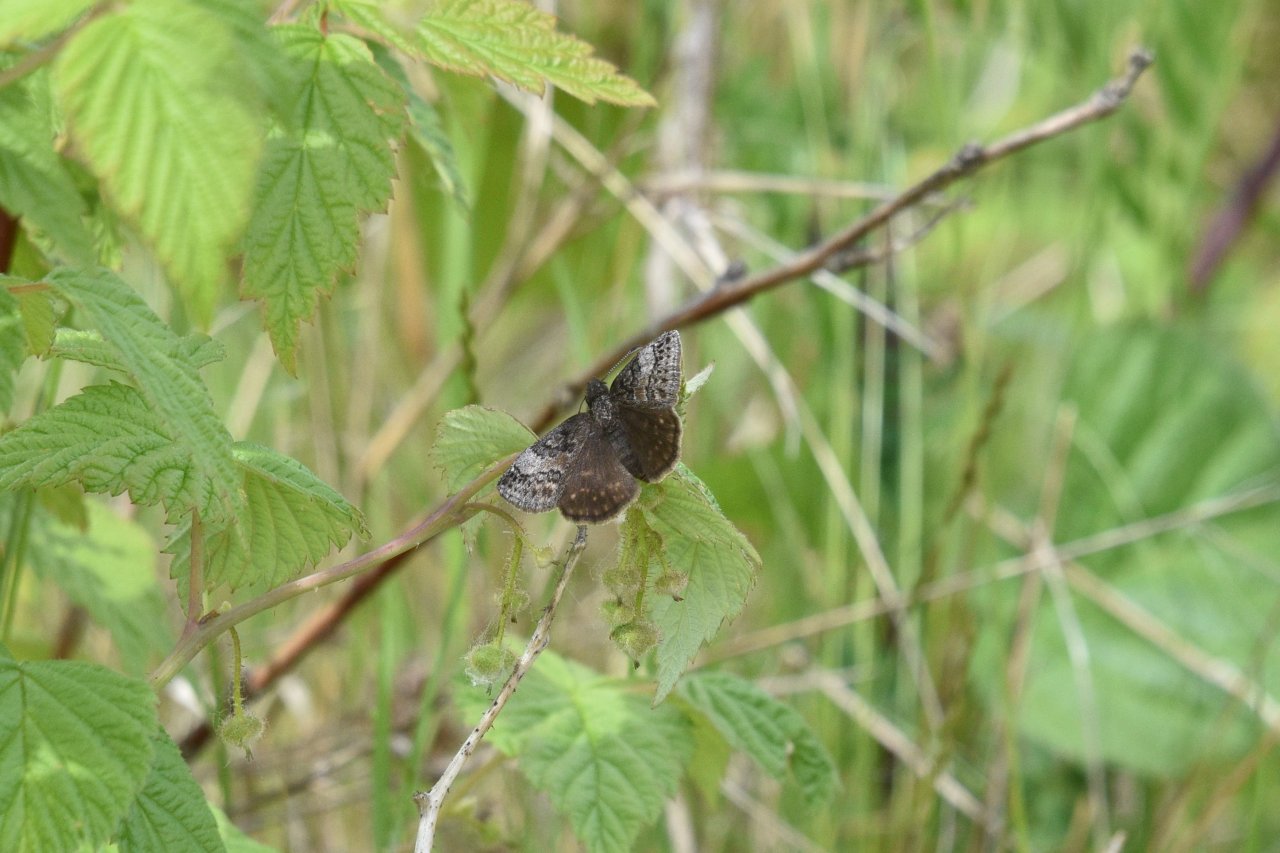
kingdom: Animalia
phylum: Arthropoda
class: Insecta
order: Lepidoptera
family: Hesperiidae
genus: Erynnis
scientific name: Erynnis icelus
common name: Dreamy Duskywing
